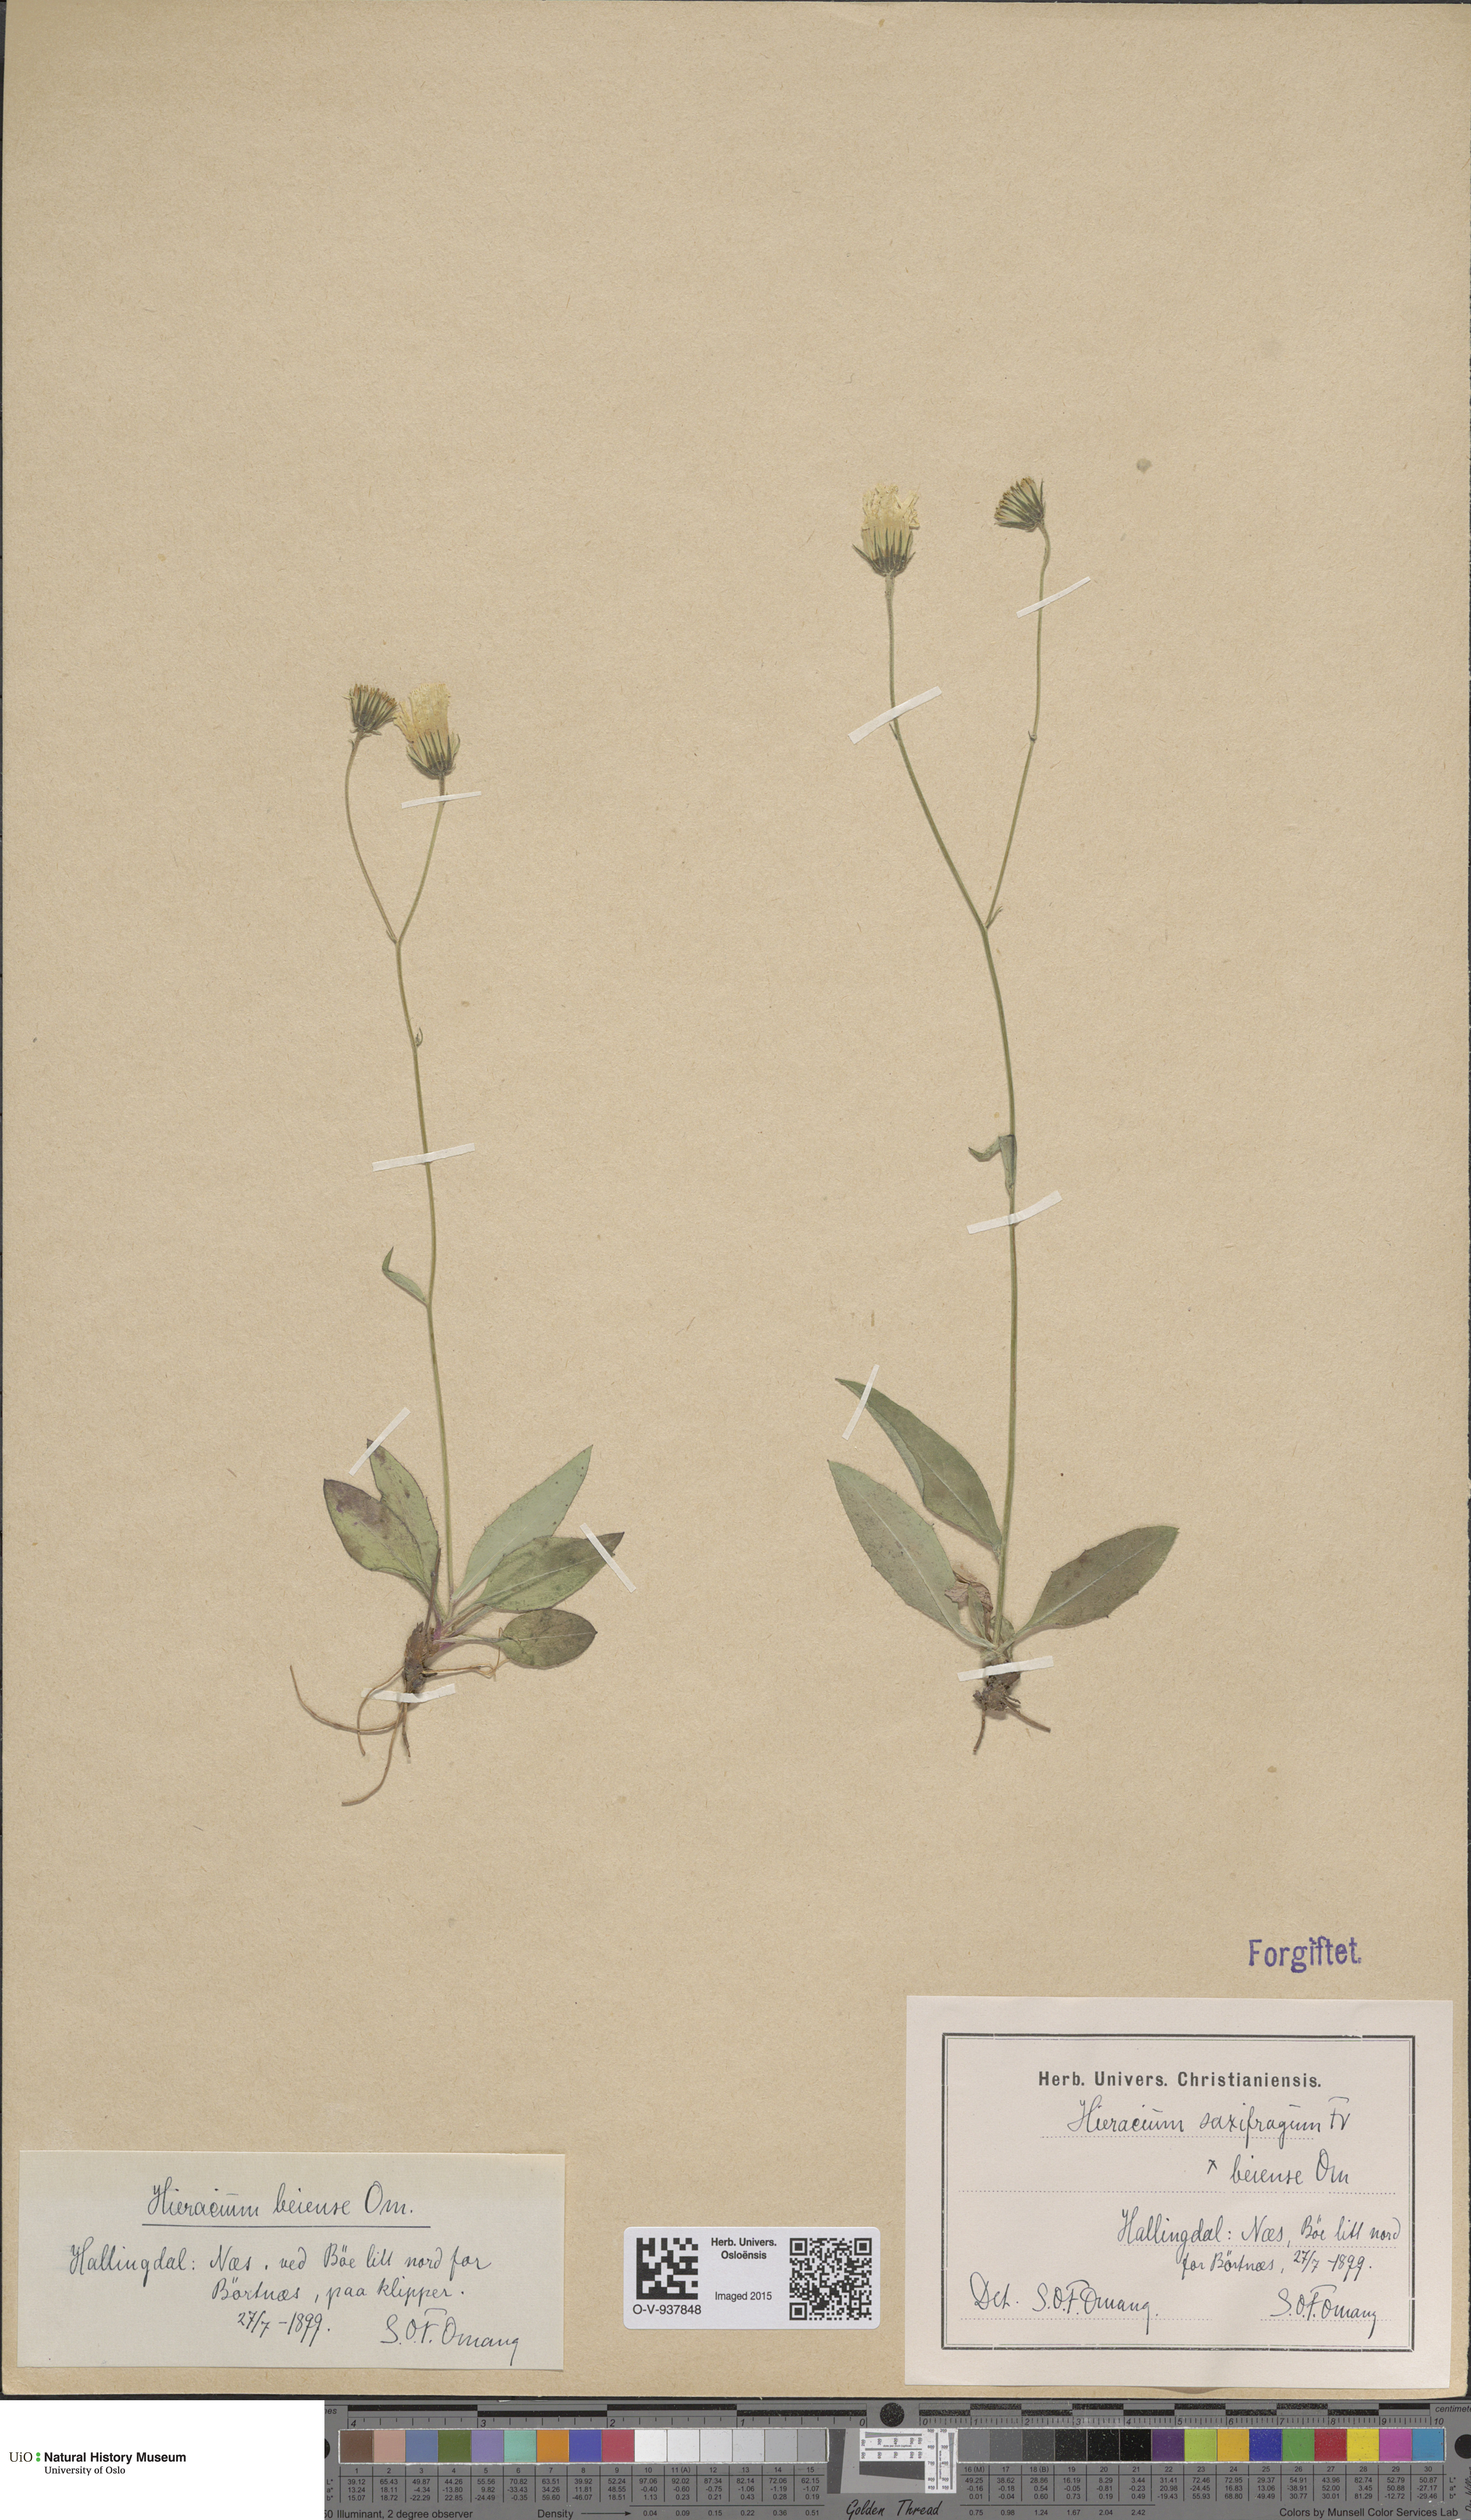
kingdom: Plantae
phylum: Tracheophyta
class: Magnoliopsida
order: Asterales
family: Asteraceae
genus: Hieracium
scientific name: Hieracium saxifragum
